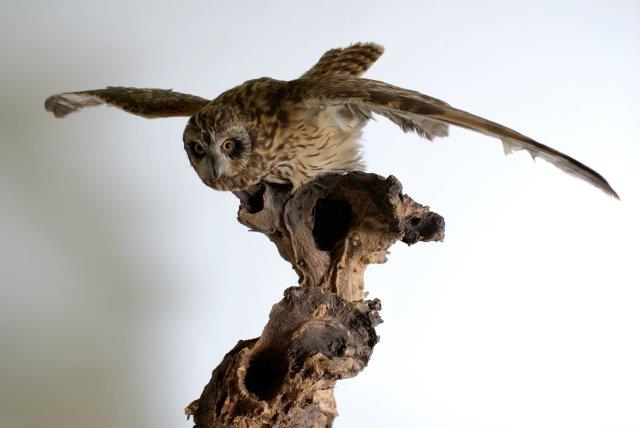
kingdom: Animalia
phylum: Chordata
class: Aves
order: Strigiformes
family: Strigidae
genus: Asio
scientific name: Asio flammeus
